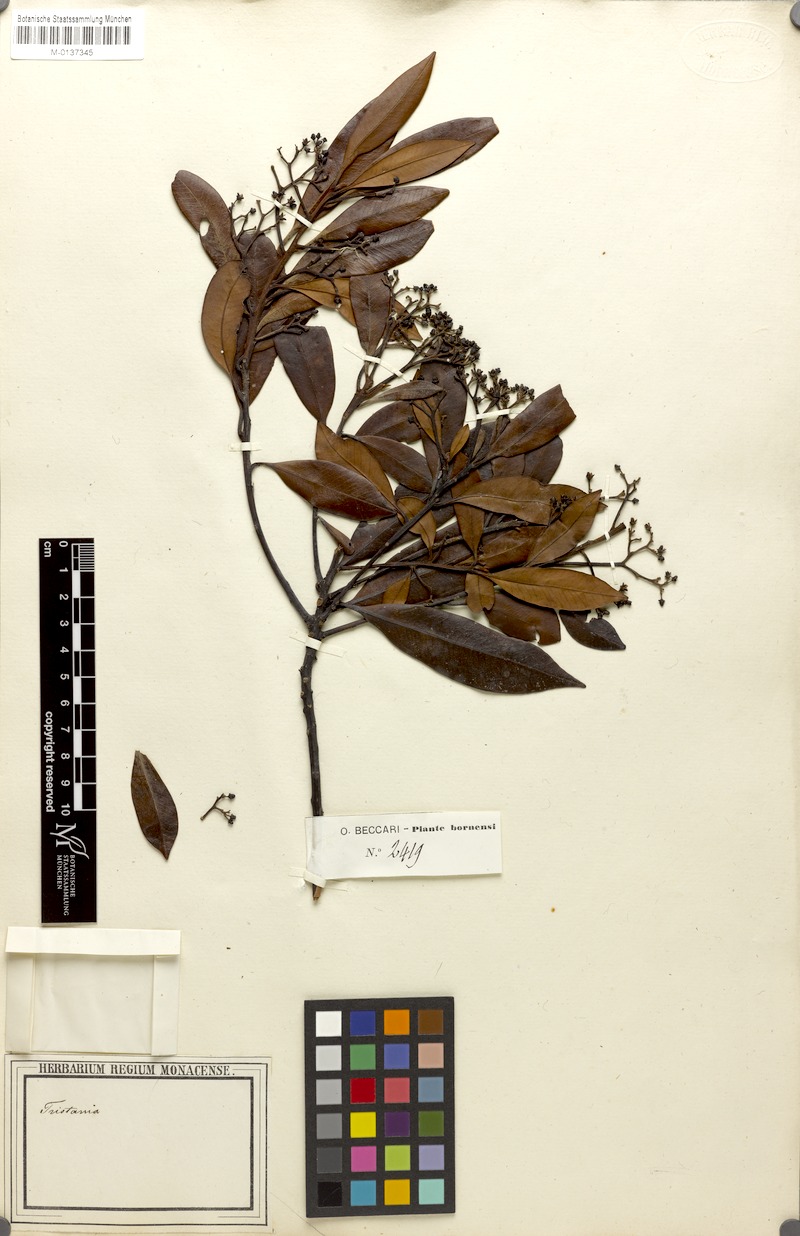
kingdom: Plantae
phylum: Tracheophyta
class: Magnoliopsida
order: Myrtales
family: Myrtaceae
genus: Tristaniopsis
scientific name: Tristaniopsis
